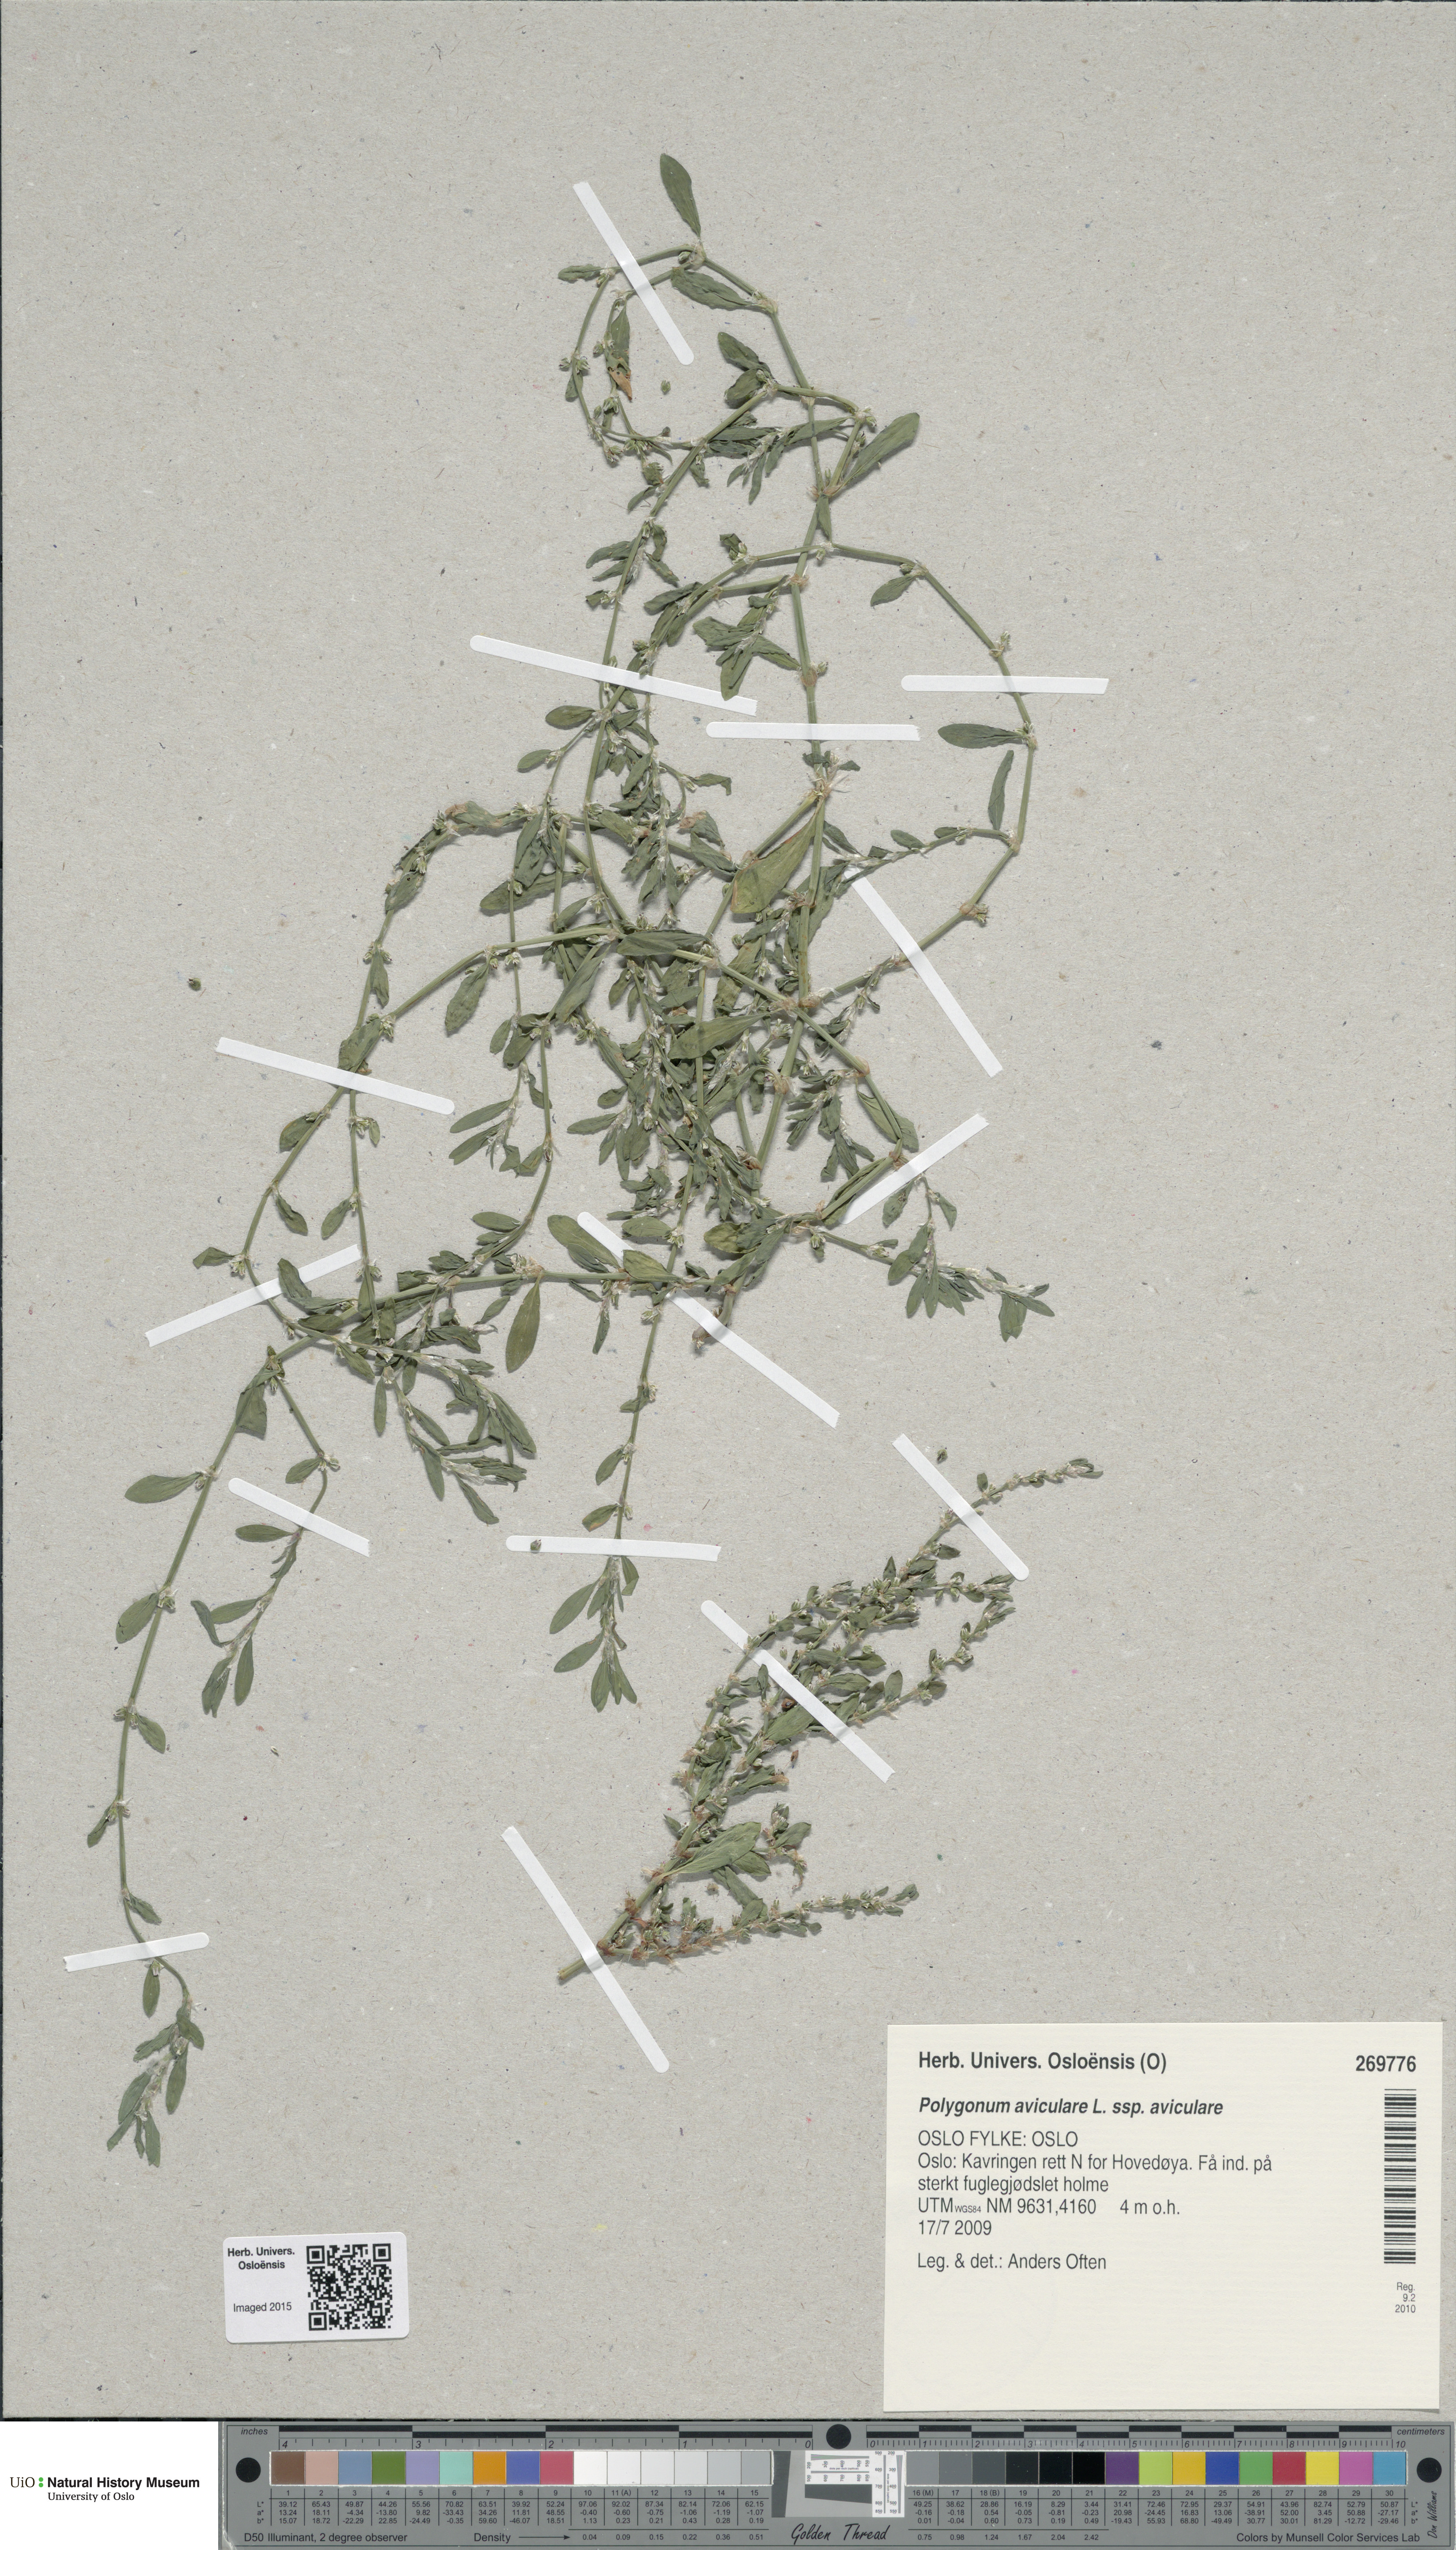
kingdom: Plantae
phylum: Tracheophyta
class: Magnoliopsida
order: Caryophyllales
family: Polygonaceae
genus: Polygonum
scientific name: Polygonum aviculare
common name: Prostrate knotweed
